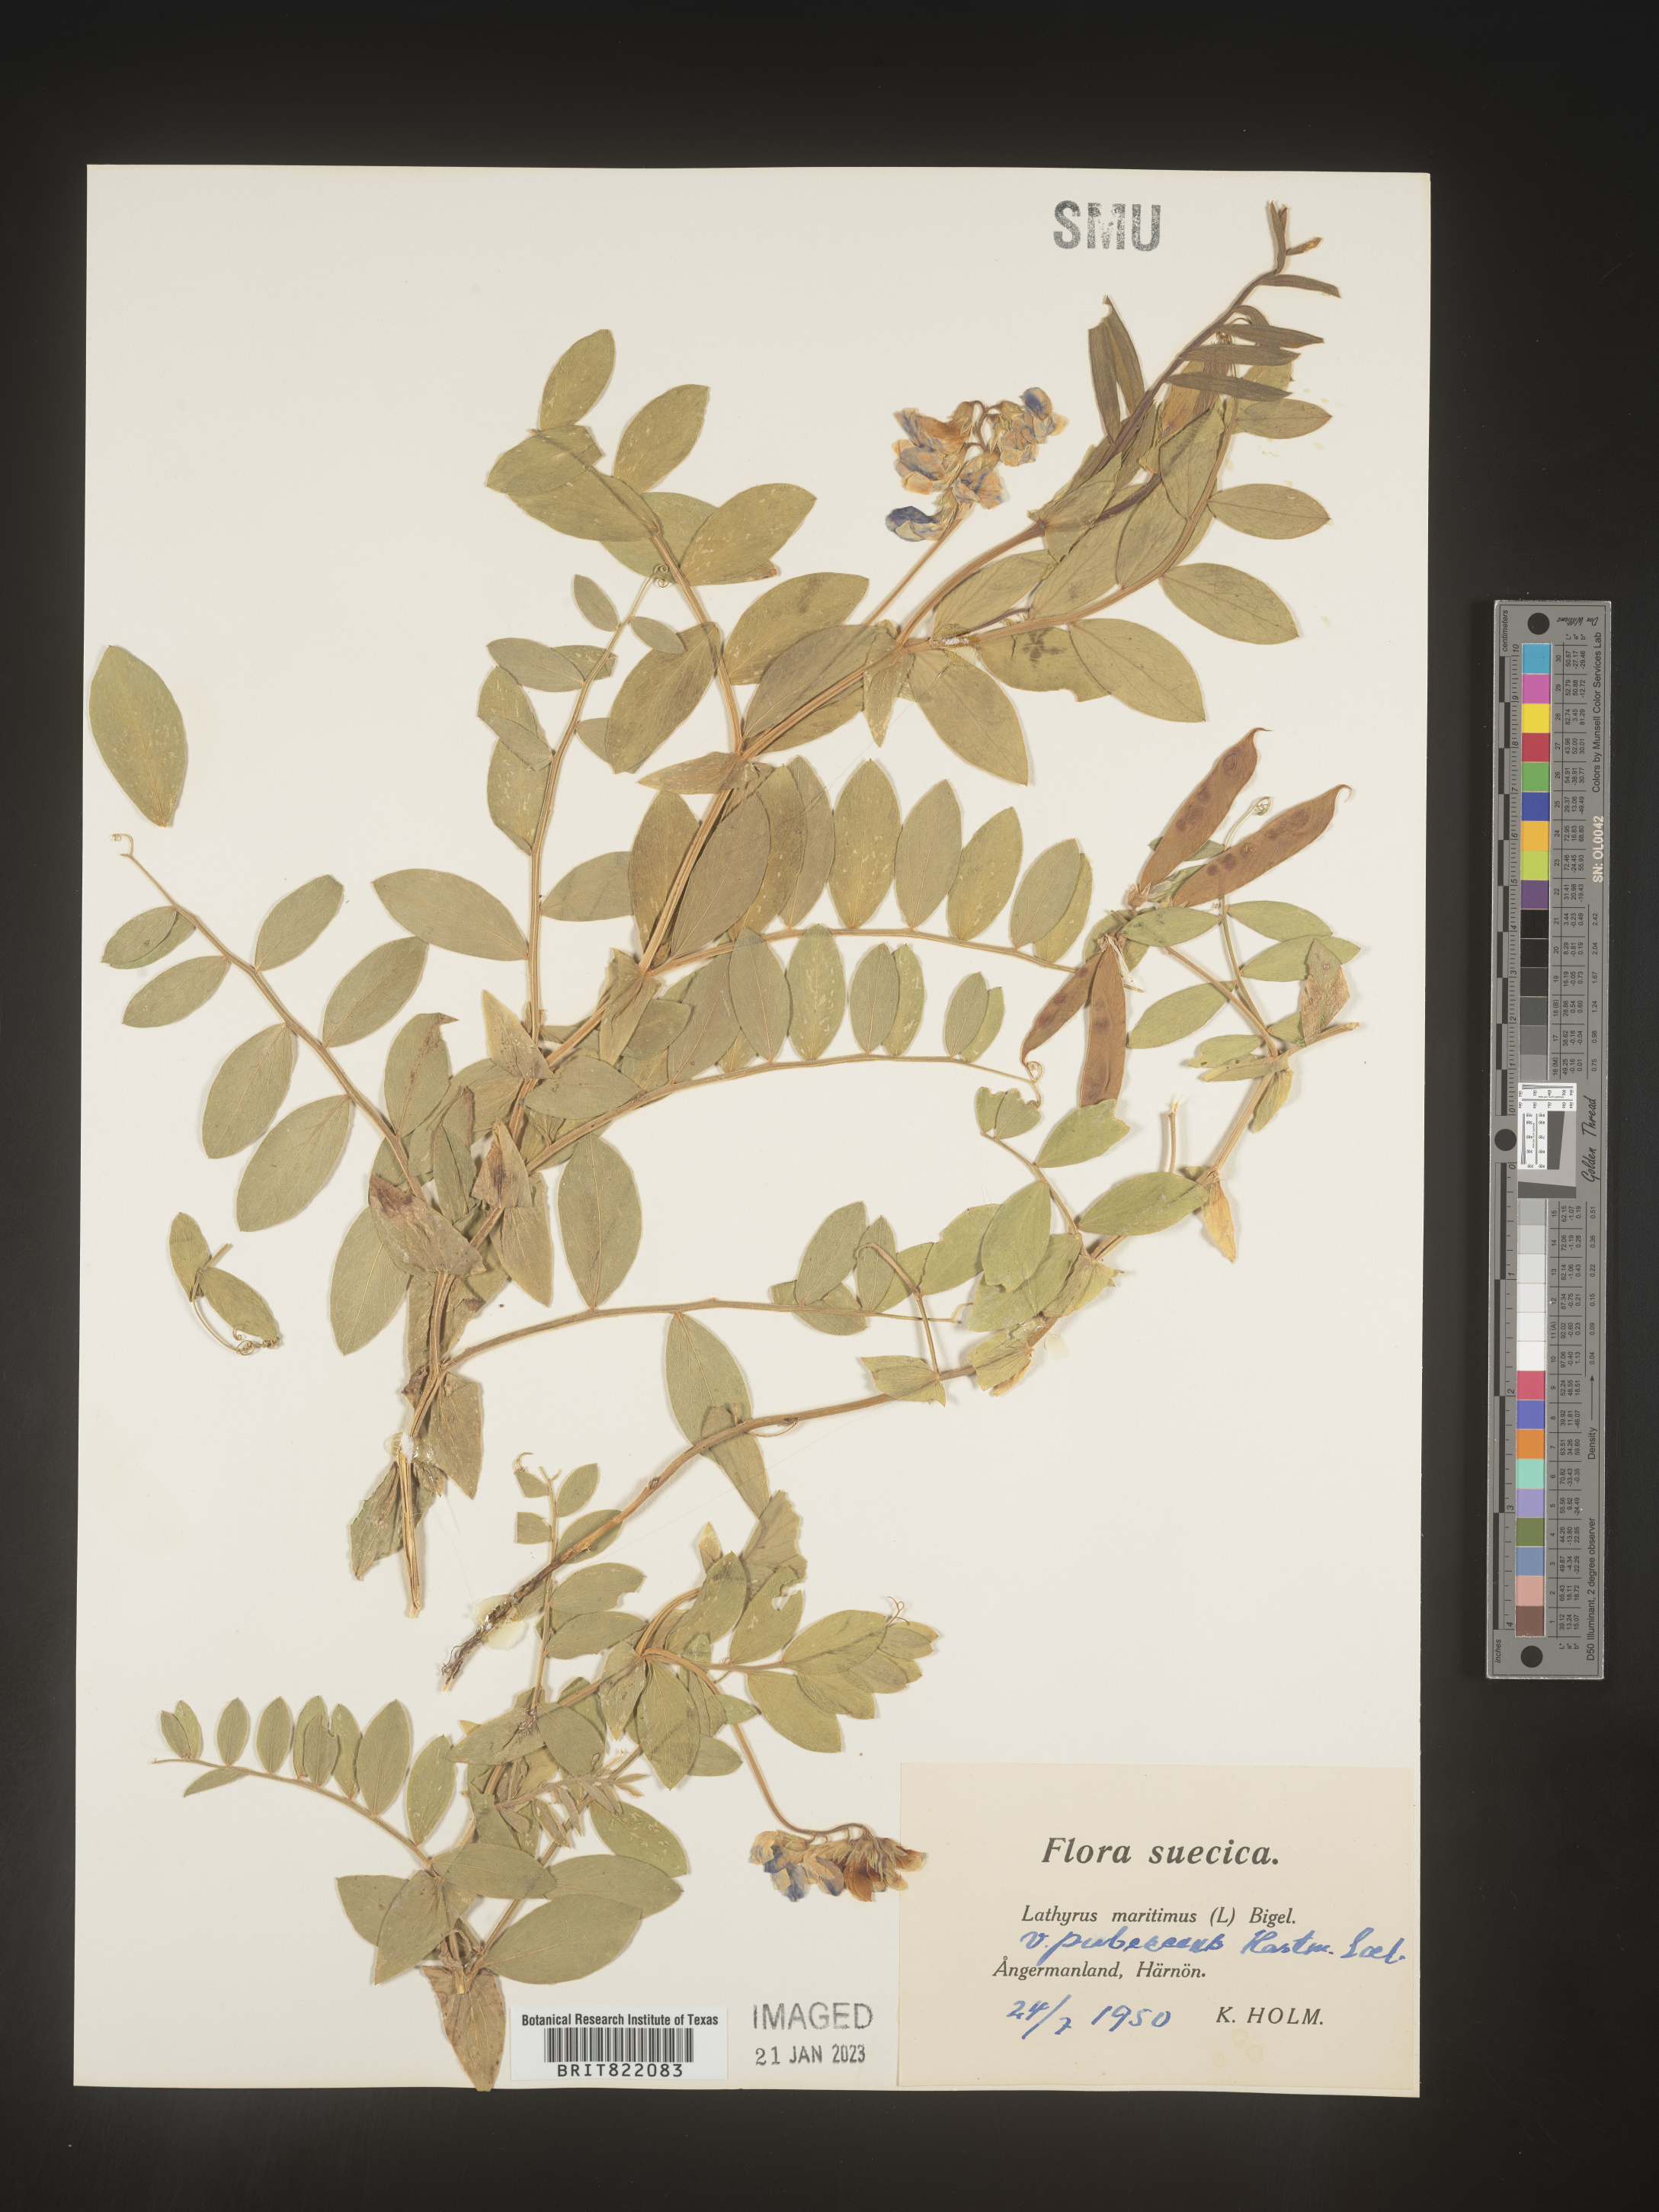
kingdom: Plantae
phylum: Tracheophyta
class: Magnoliopsida
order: Fabales
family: Fabaceae
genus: Lathyrus
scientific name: Lathyrus
